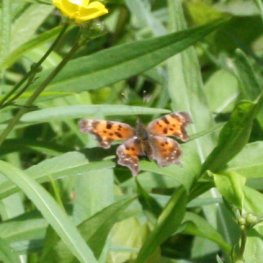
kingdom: Animalia
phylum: Arthropoda
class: Insecta
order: Lepidoptera
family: Nymphalidae
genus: Polygonia
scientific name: Polygonia faunus
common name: Green Comma
